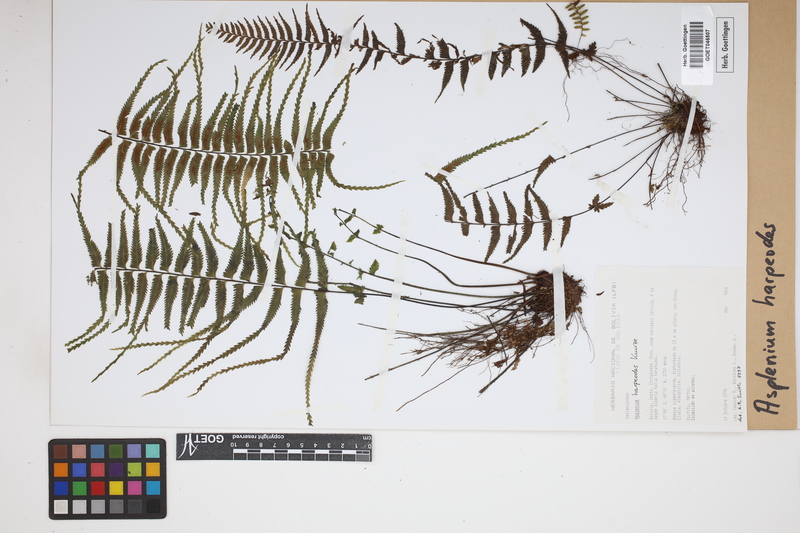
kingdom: Plantae
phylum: Tracheophyta
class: Polypodiopsida
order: Polypodiales
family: Aspleniaceae
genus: Asplenium
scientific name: Asplenium harpeodes
